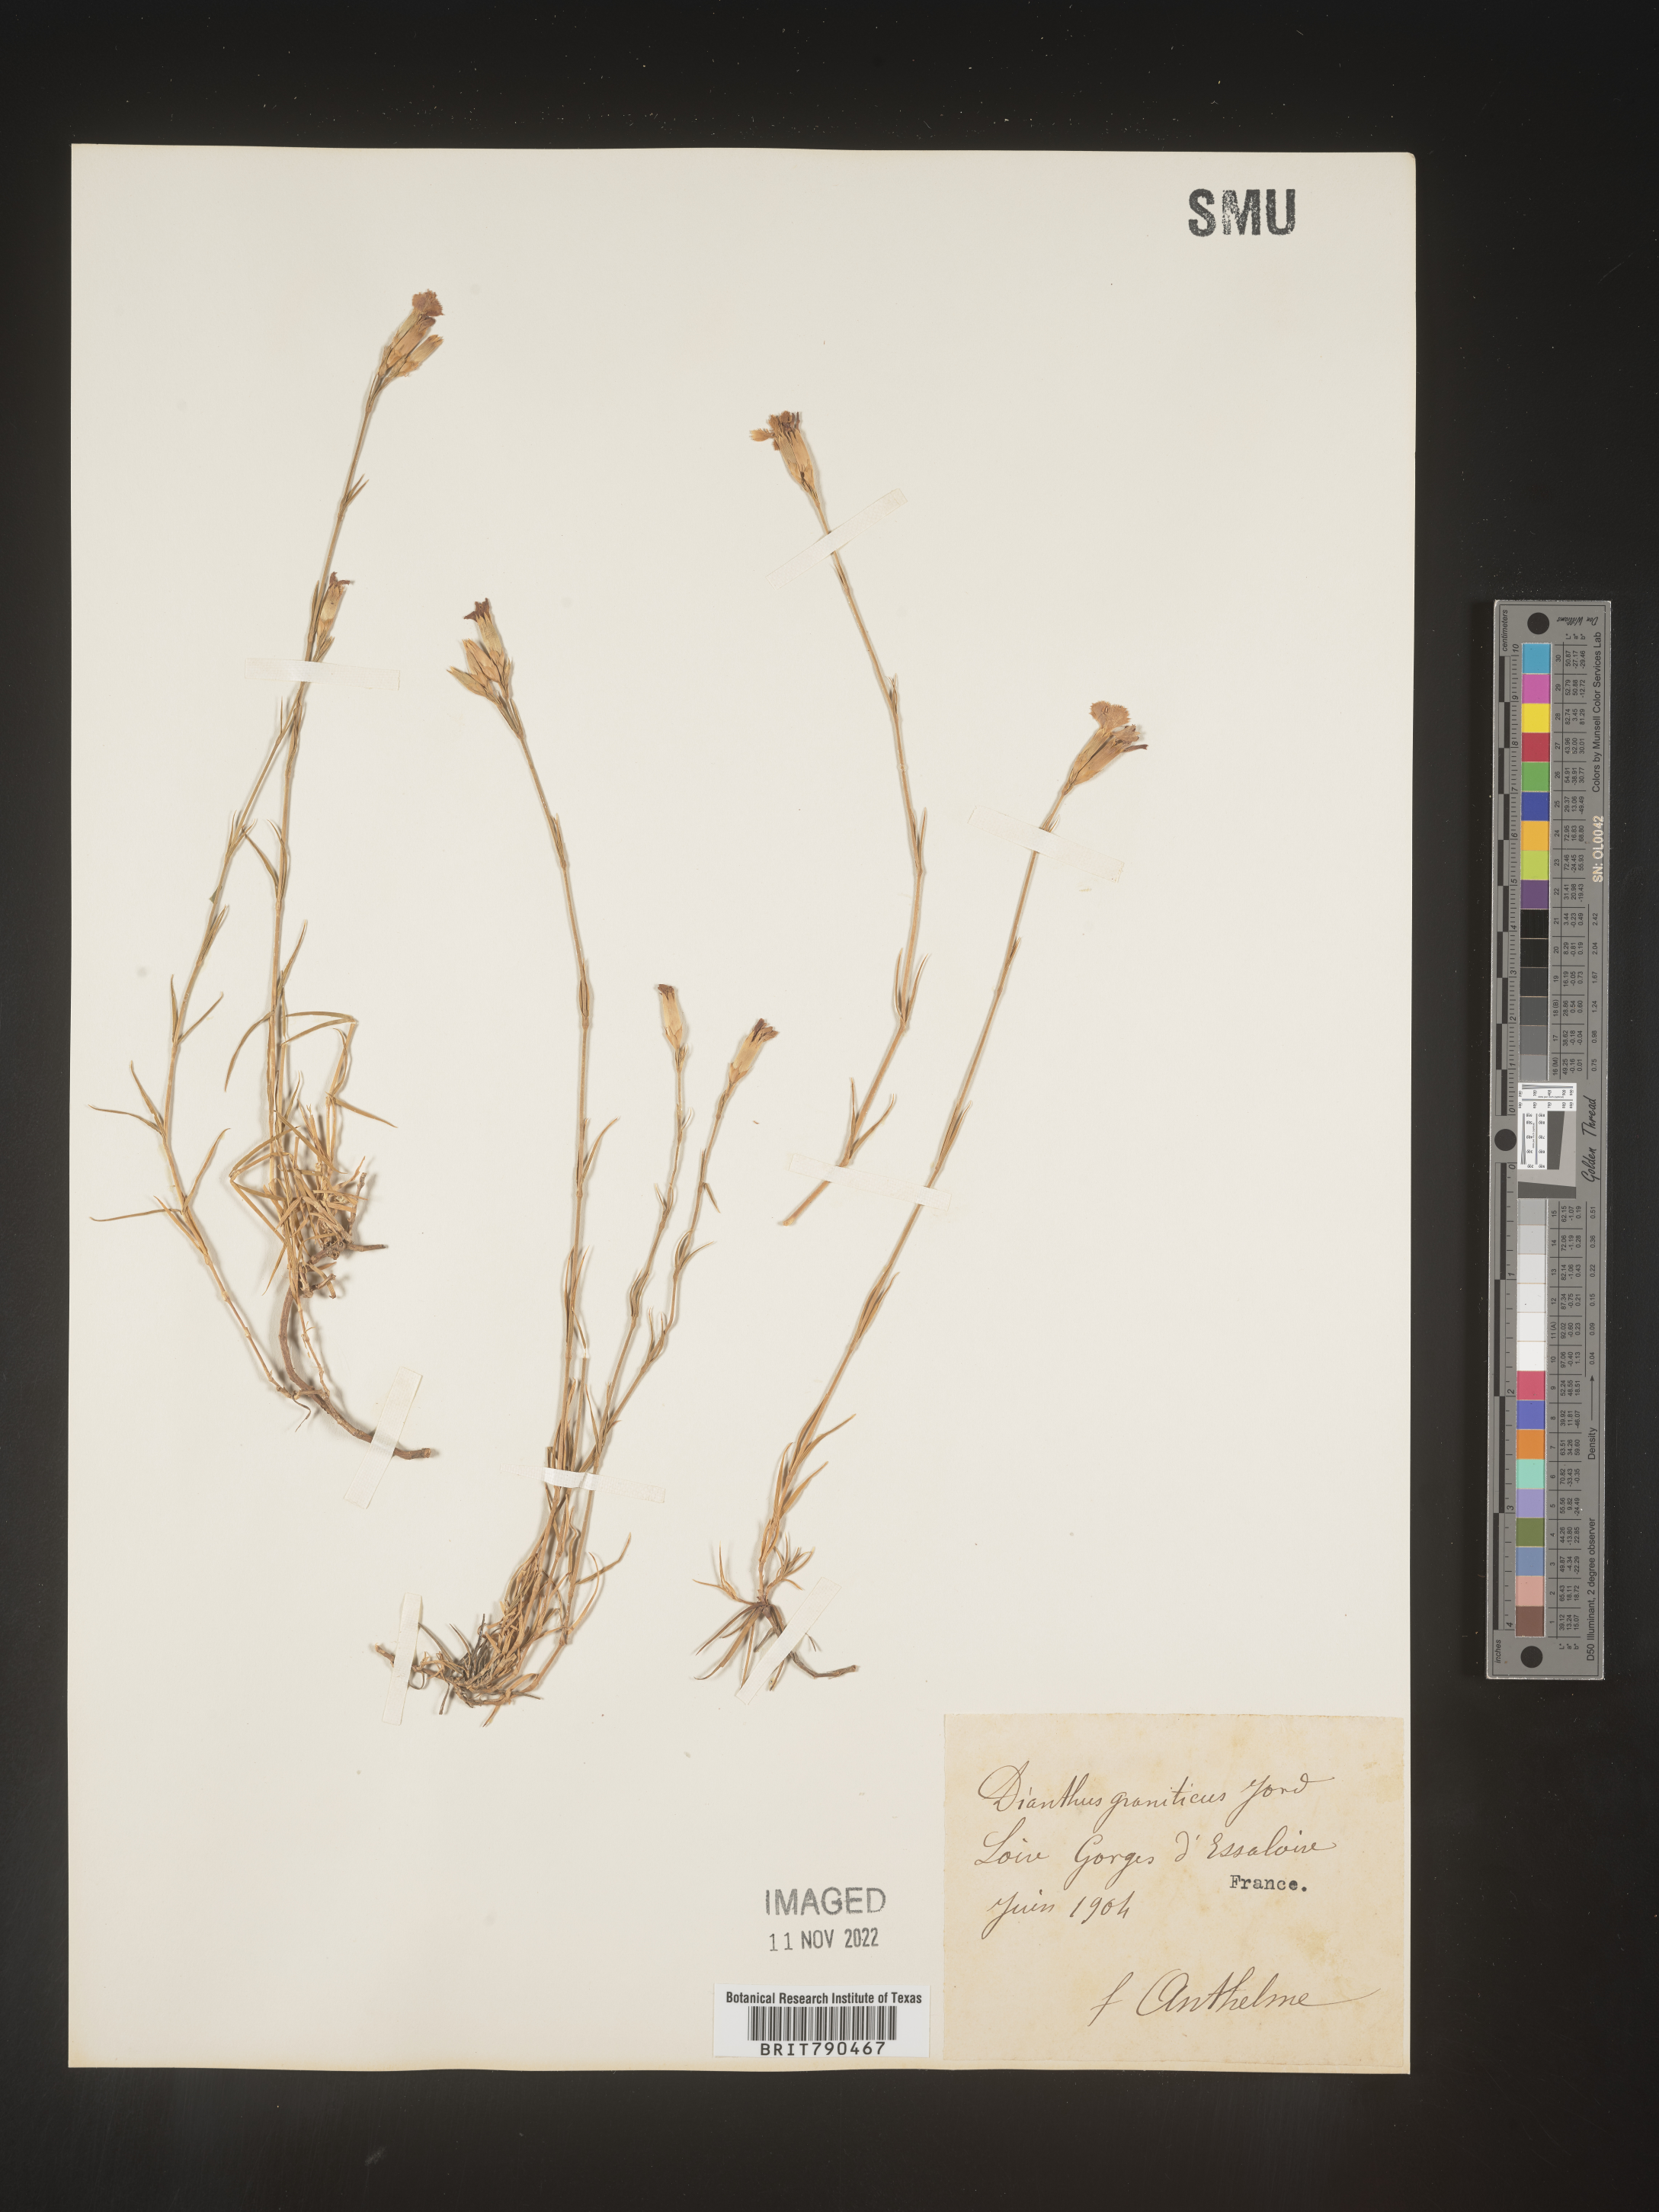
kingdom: Plantae
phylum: Tracheophyta
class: Magnoliopsida
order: Caryophyllales
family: Caryophyllaceae
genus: Dianthus
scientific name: Dianthus
